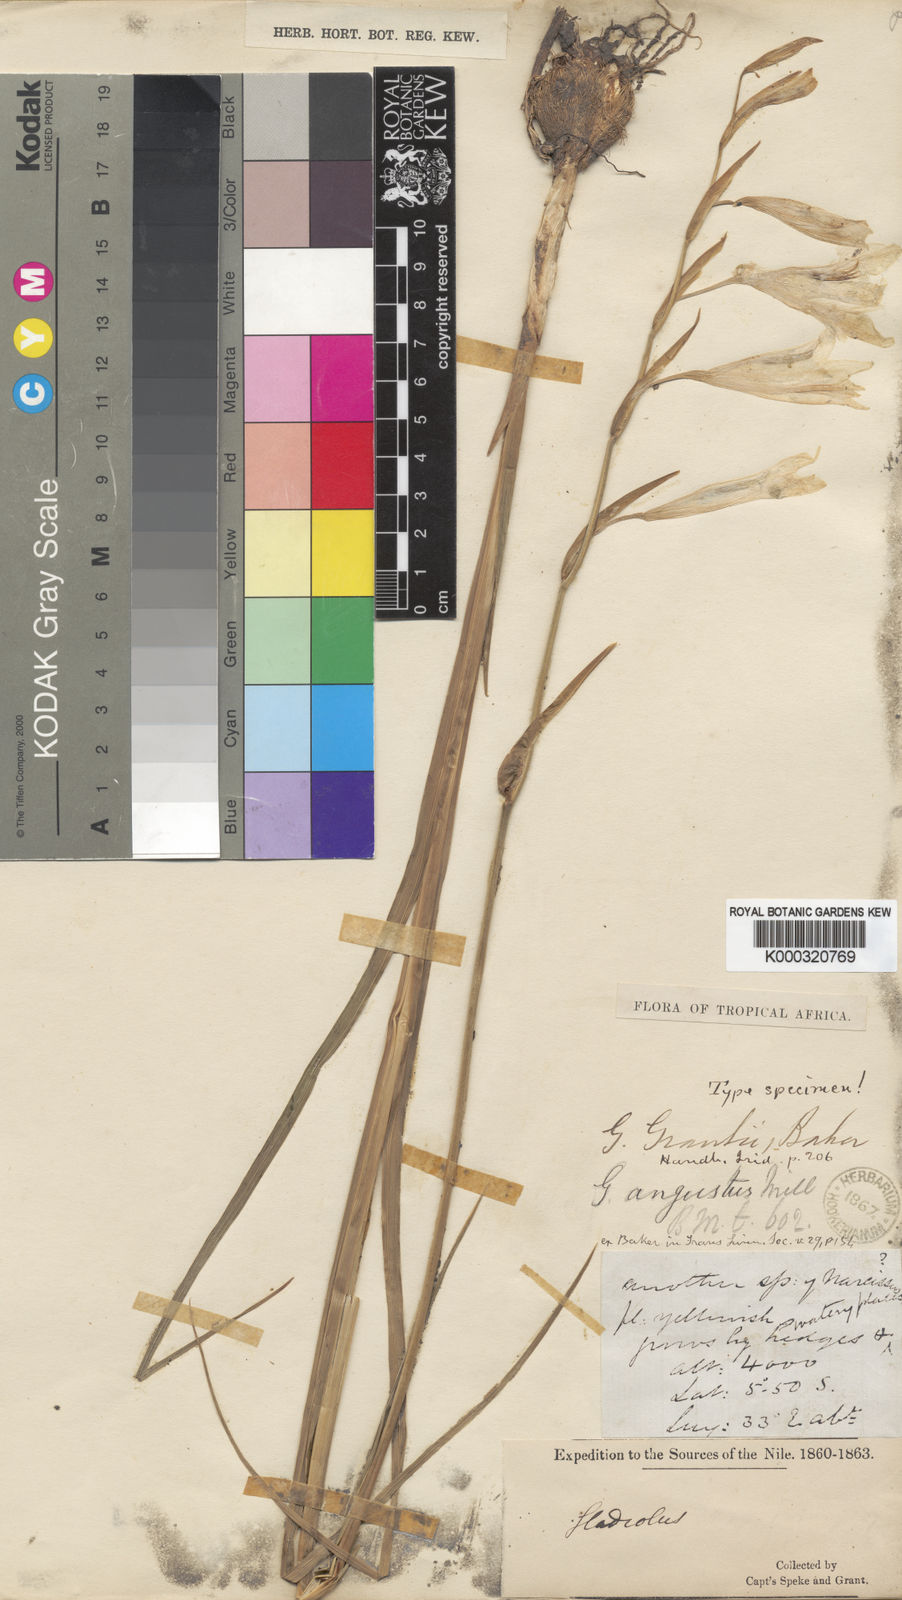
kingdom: Plantae
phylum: Tracheophyta
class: Liliopsida
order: Asparagales
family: Iridaceae
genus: Gladiolus
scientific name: Gladiolus grantii
